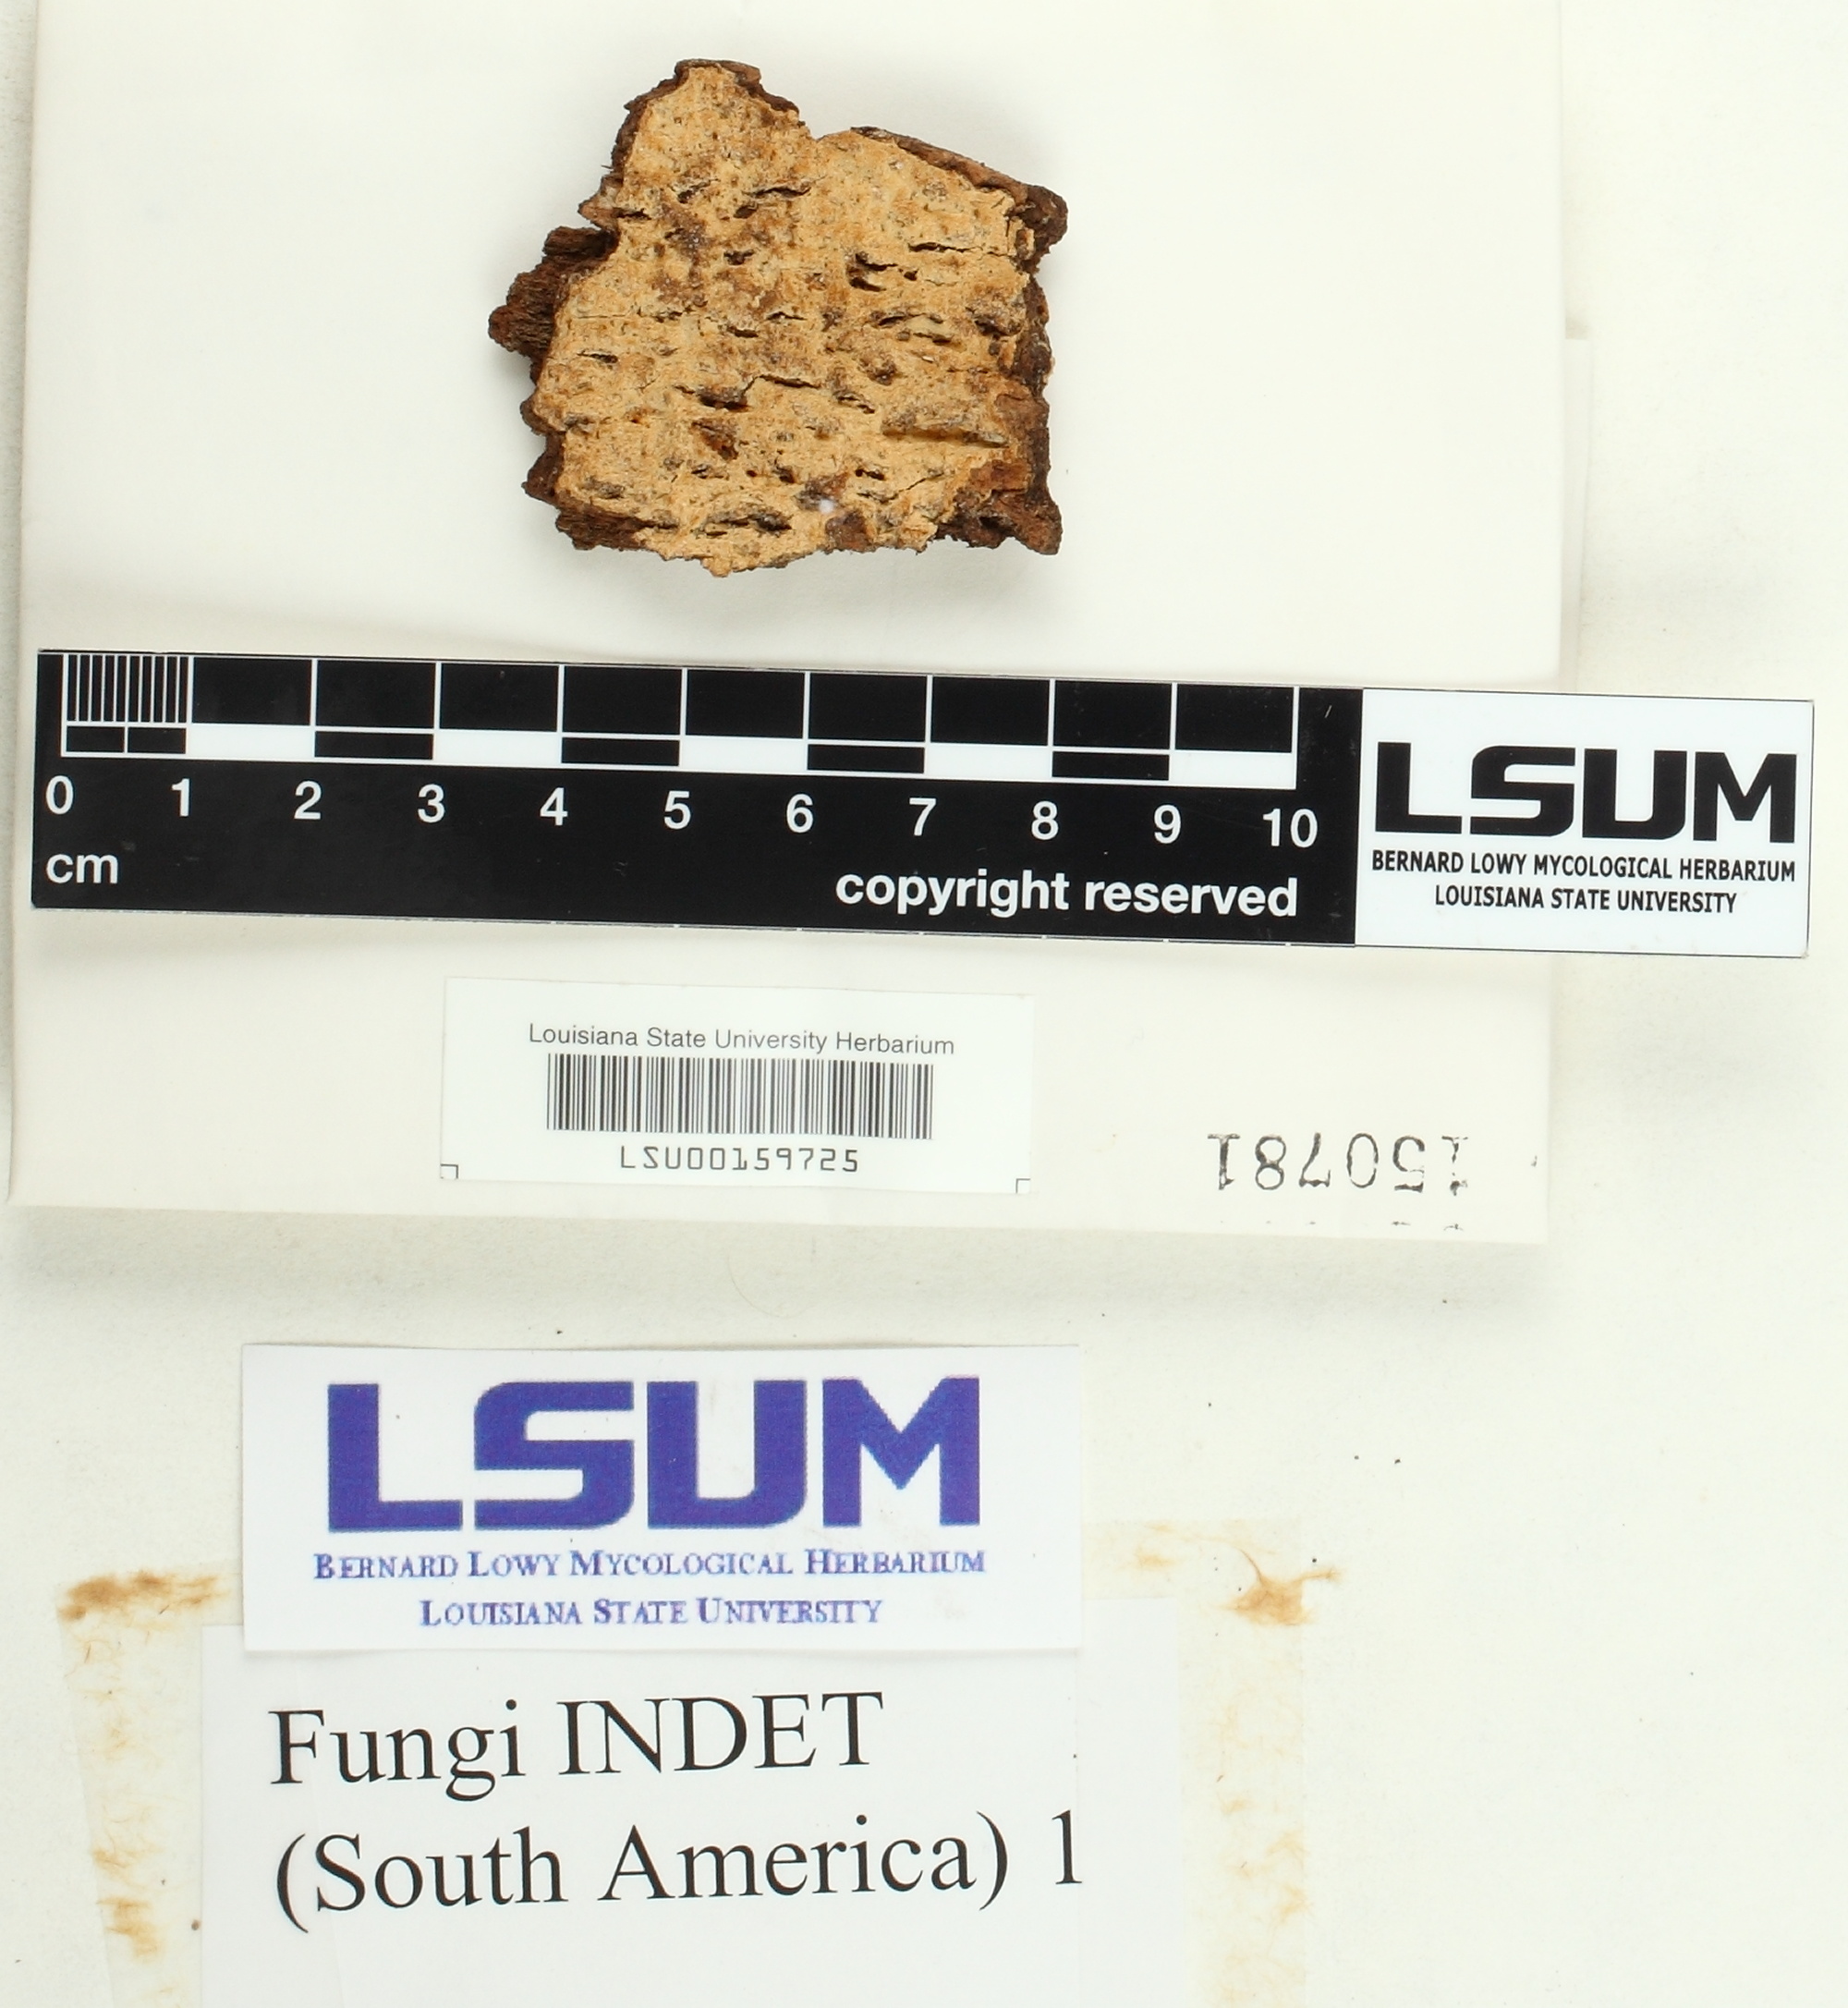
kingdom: Fungi
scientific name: Fungi
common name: Fungi
